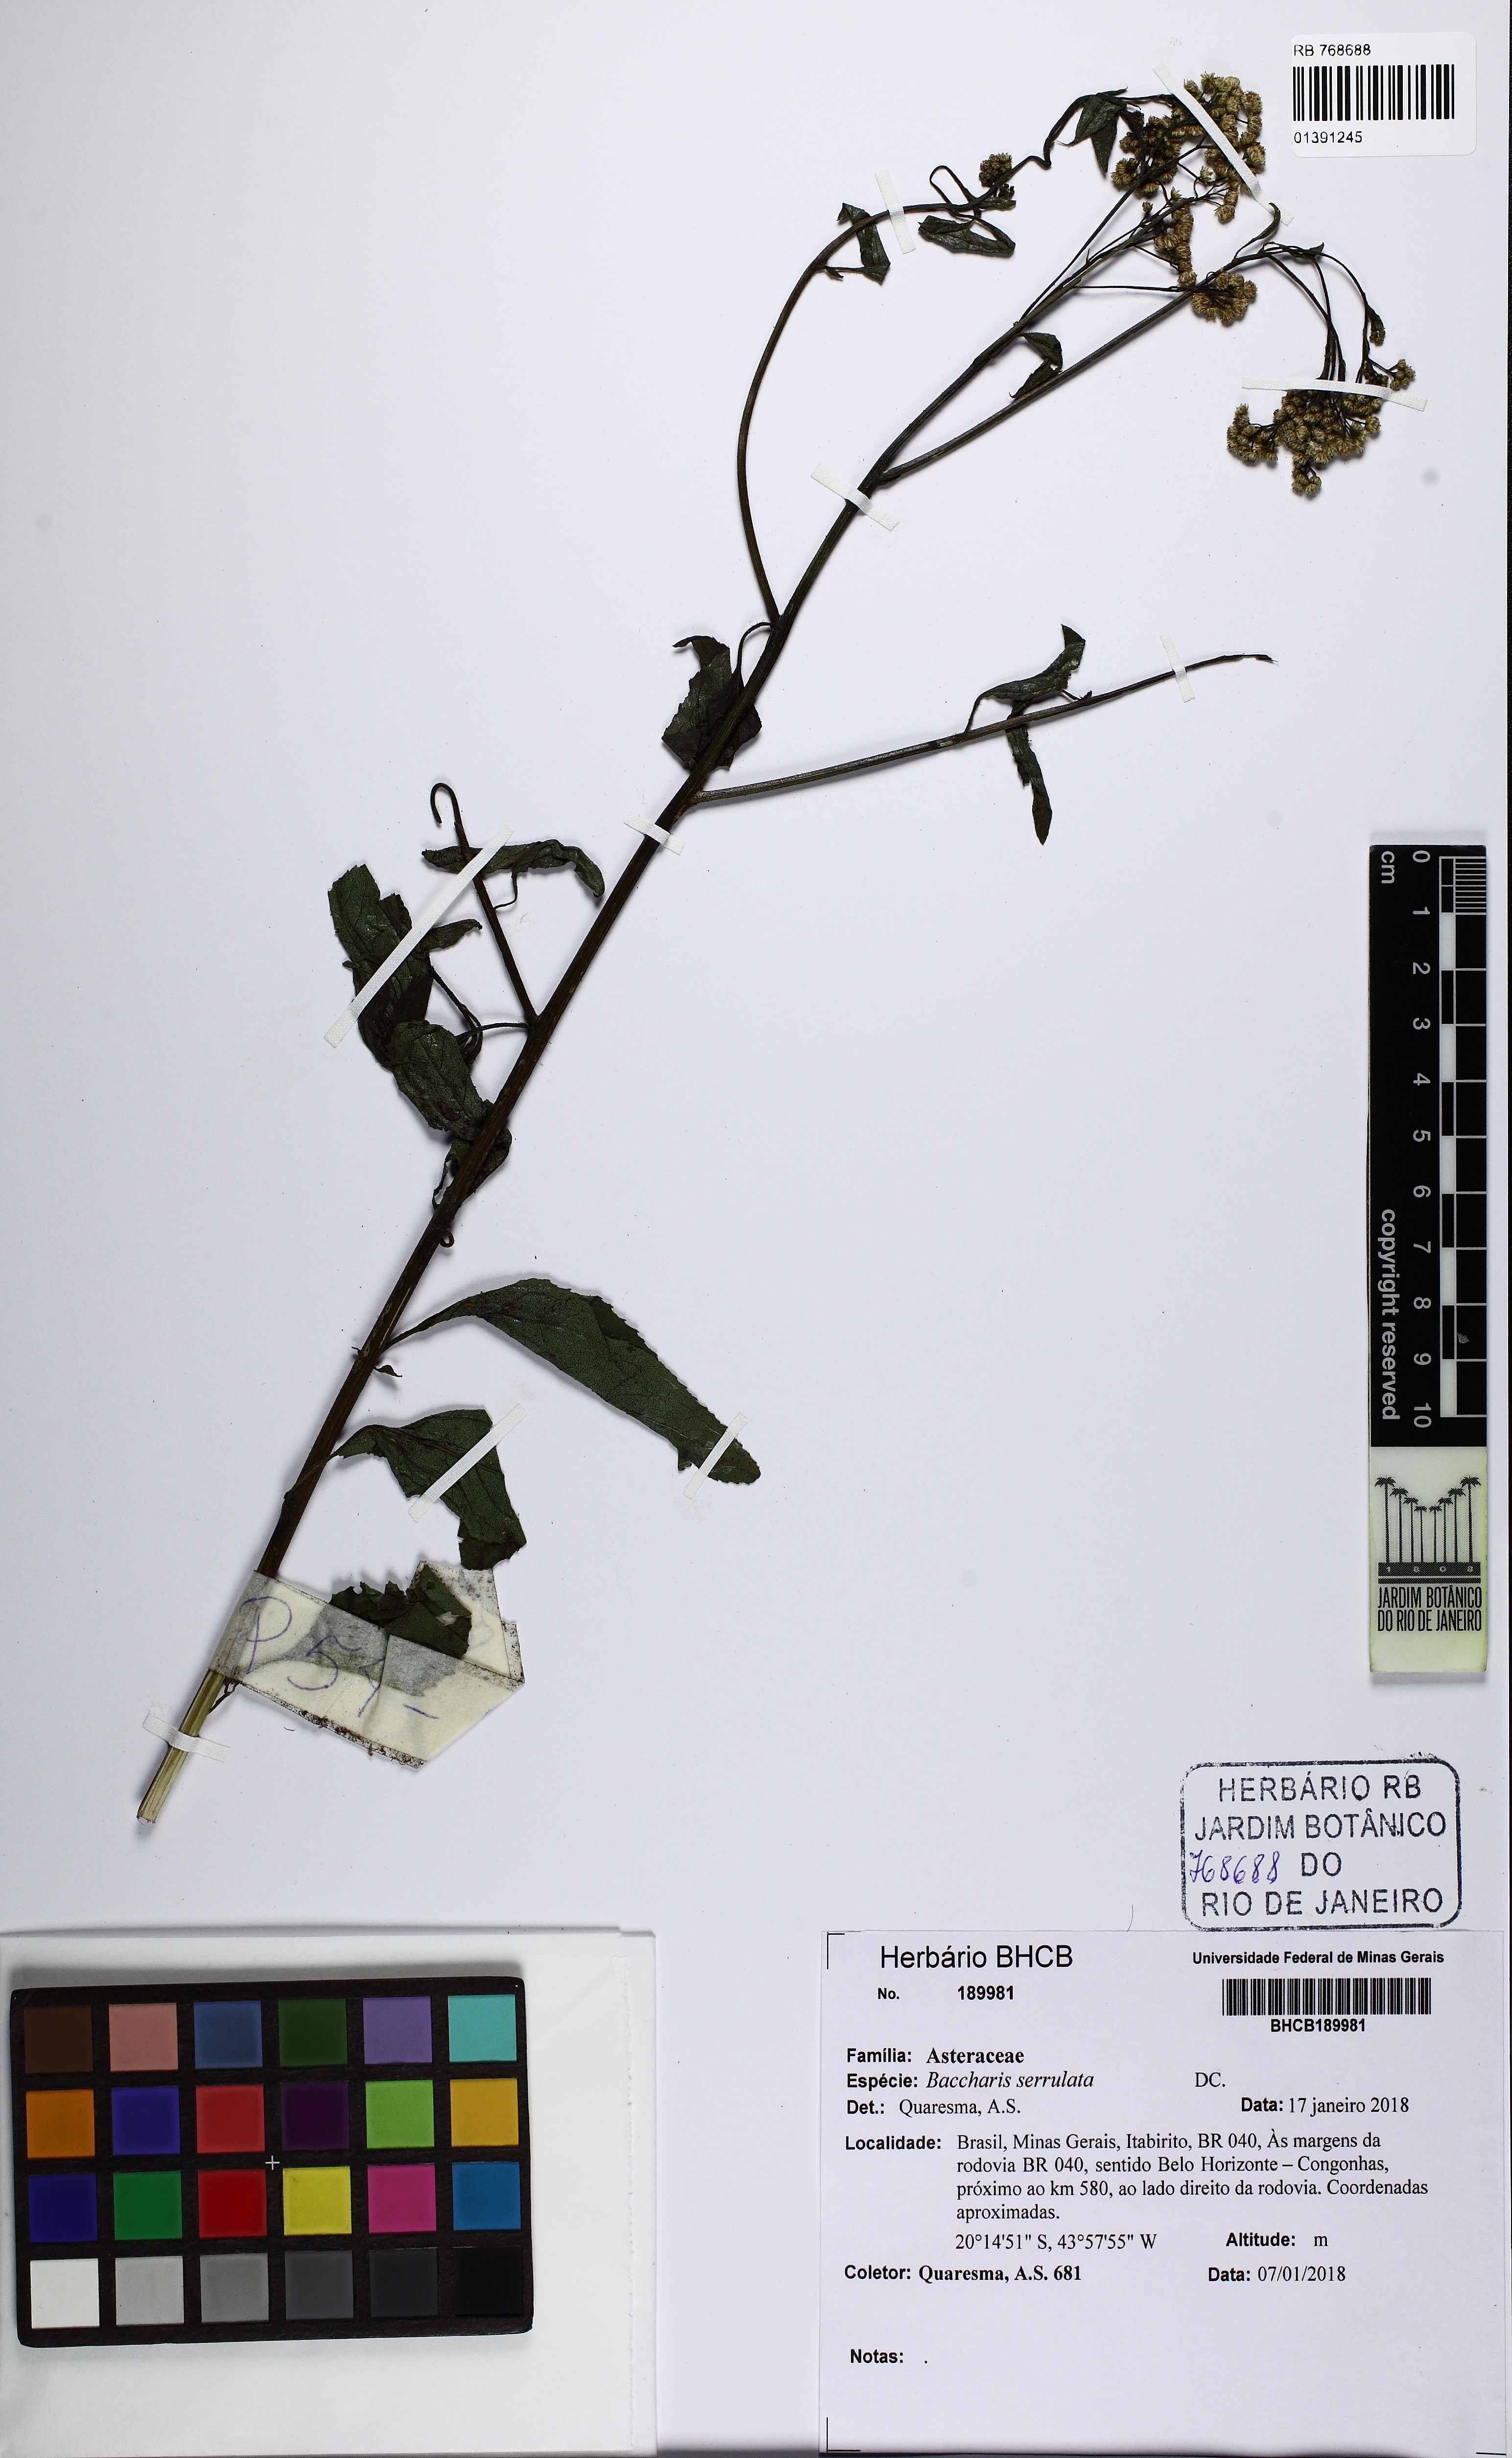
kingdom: Plantae
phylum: Tracheophyta
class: Magnoliopsida
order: Asterales
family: Asteraceae
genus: Baccharis
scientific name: Baccharis serrulata
